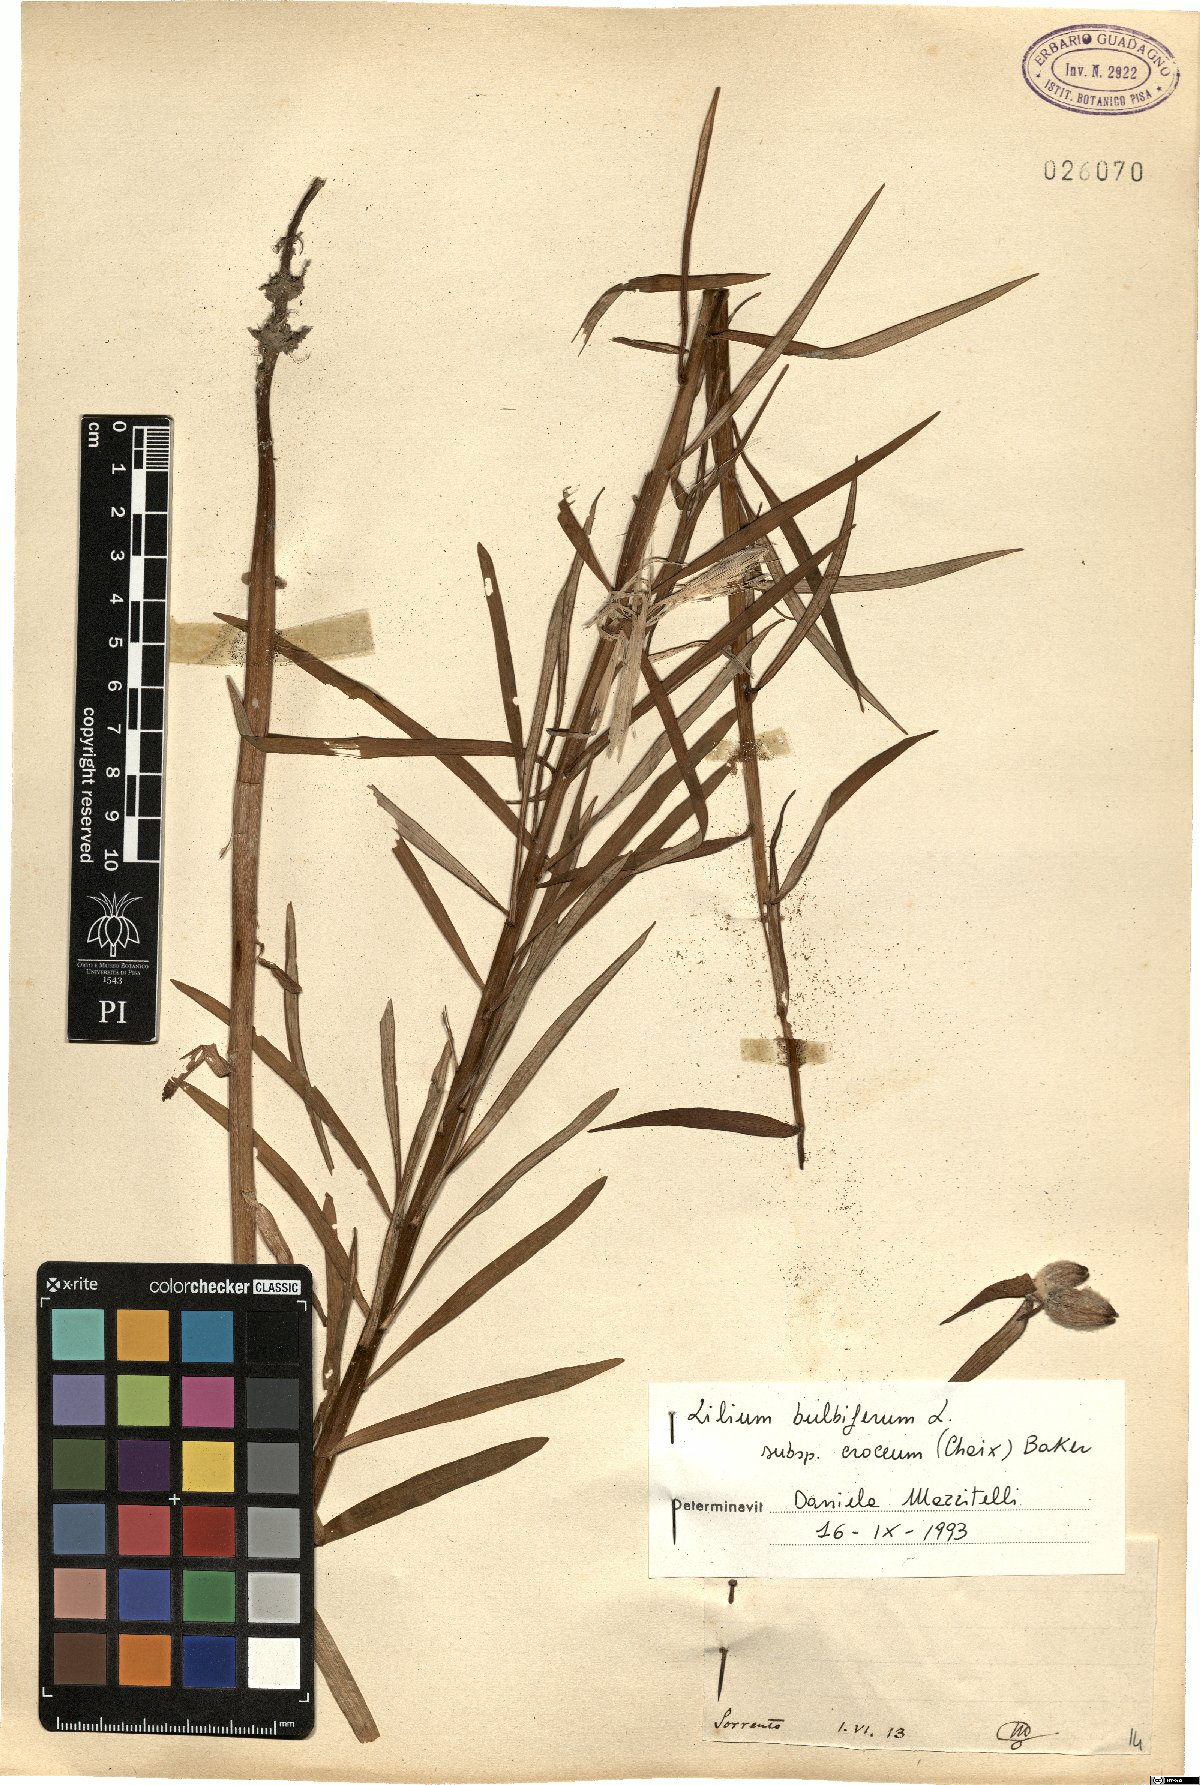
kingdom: Plantae
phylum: Tracheophyta
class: Liliopsida
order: Liliales
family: Liliaceae
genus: Lilium
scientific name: Lilium bulbiferum
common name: Orange lily
